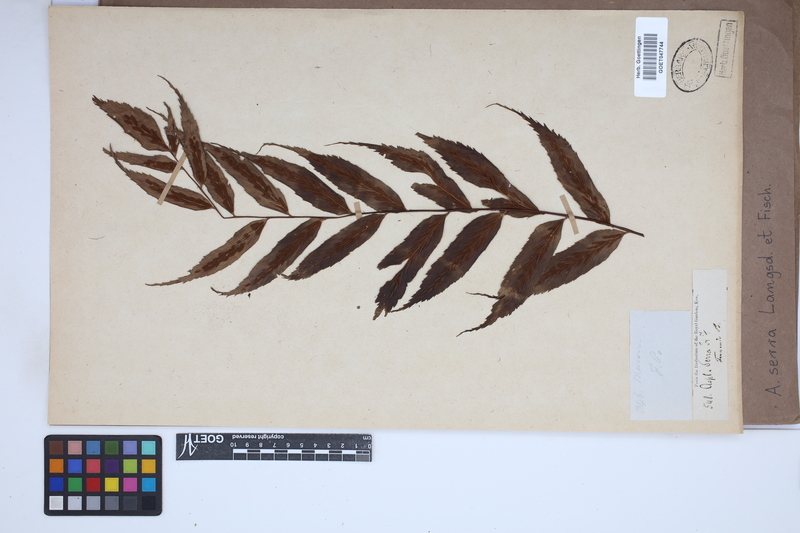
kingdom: Plantae
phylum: Tracheophyta
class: Polypodiopsida
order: Polypodiales
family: Aspleniaceae
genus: Asplenium
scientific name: Asplenium serra
